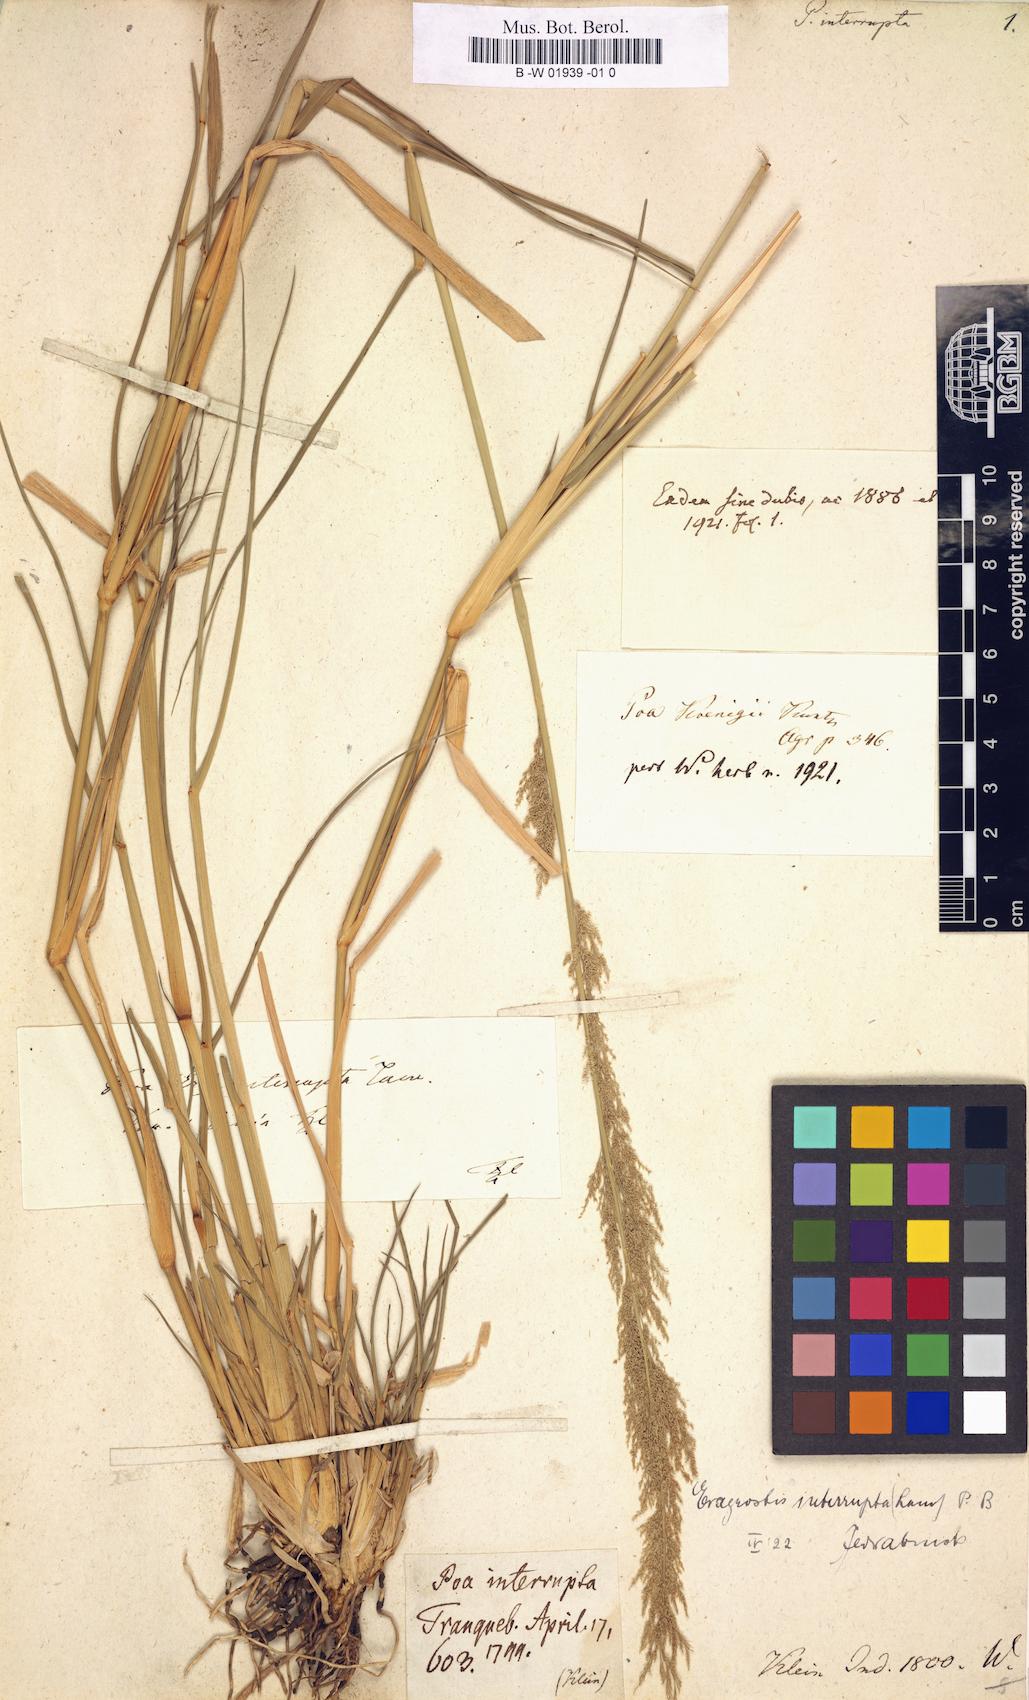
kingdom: Plantae
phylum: Tracheophyta
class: Liliopsida
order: Poales
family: Poaceae
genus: Eragrostis
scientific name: Eragrostis japonica
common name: Pond lovegrass
